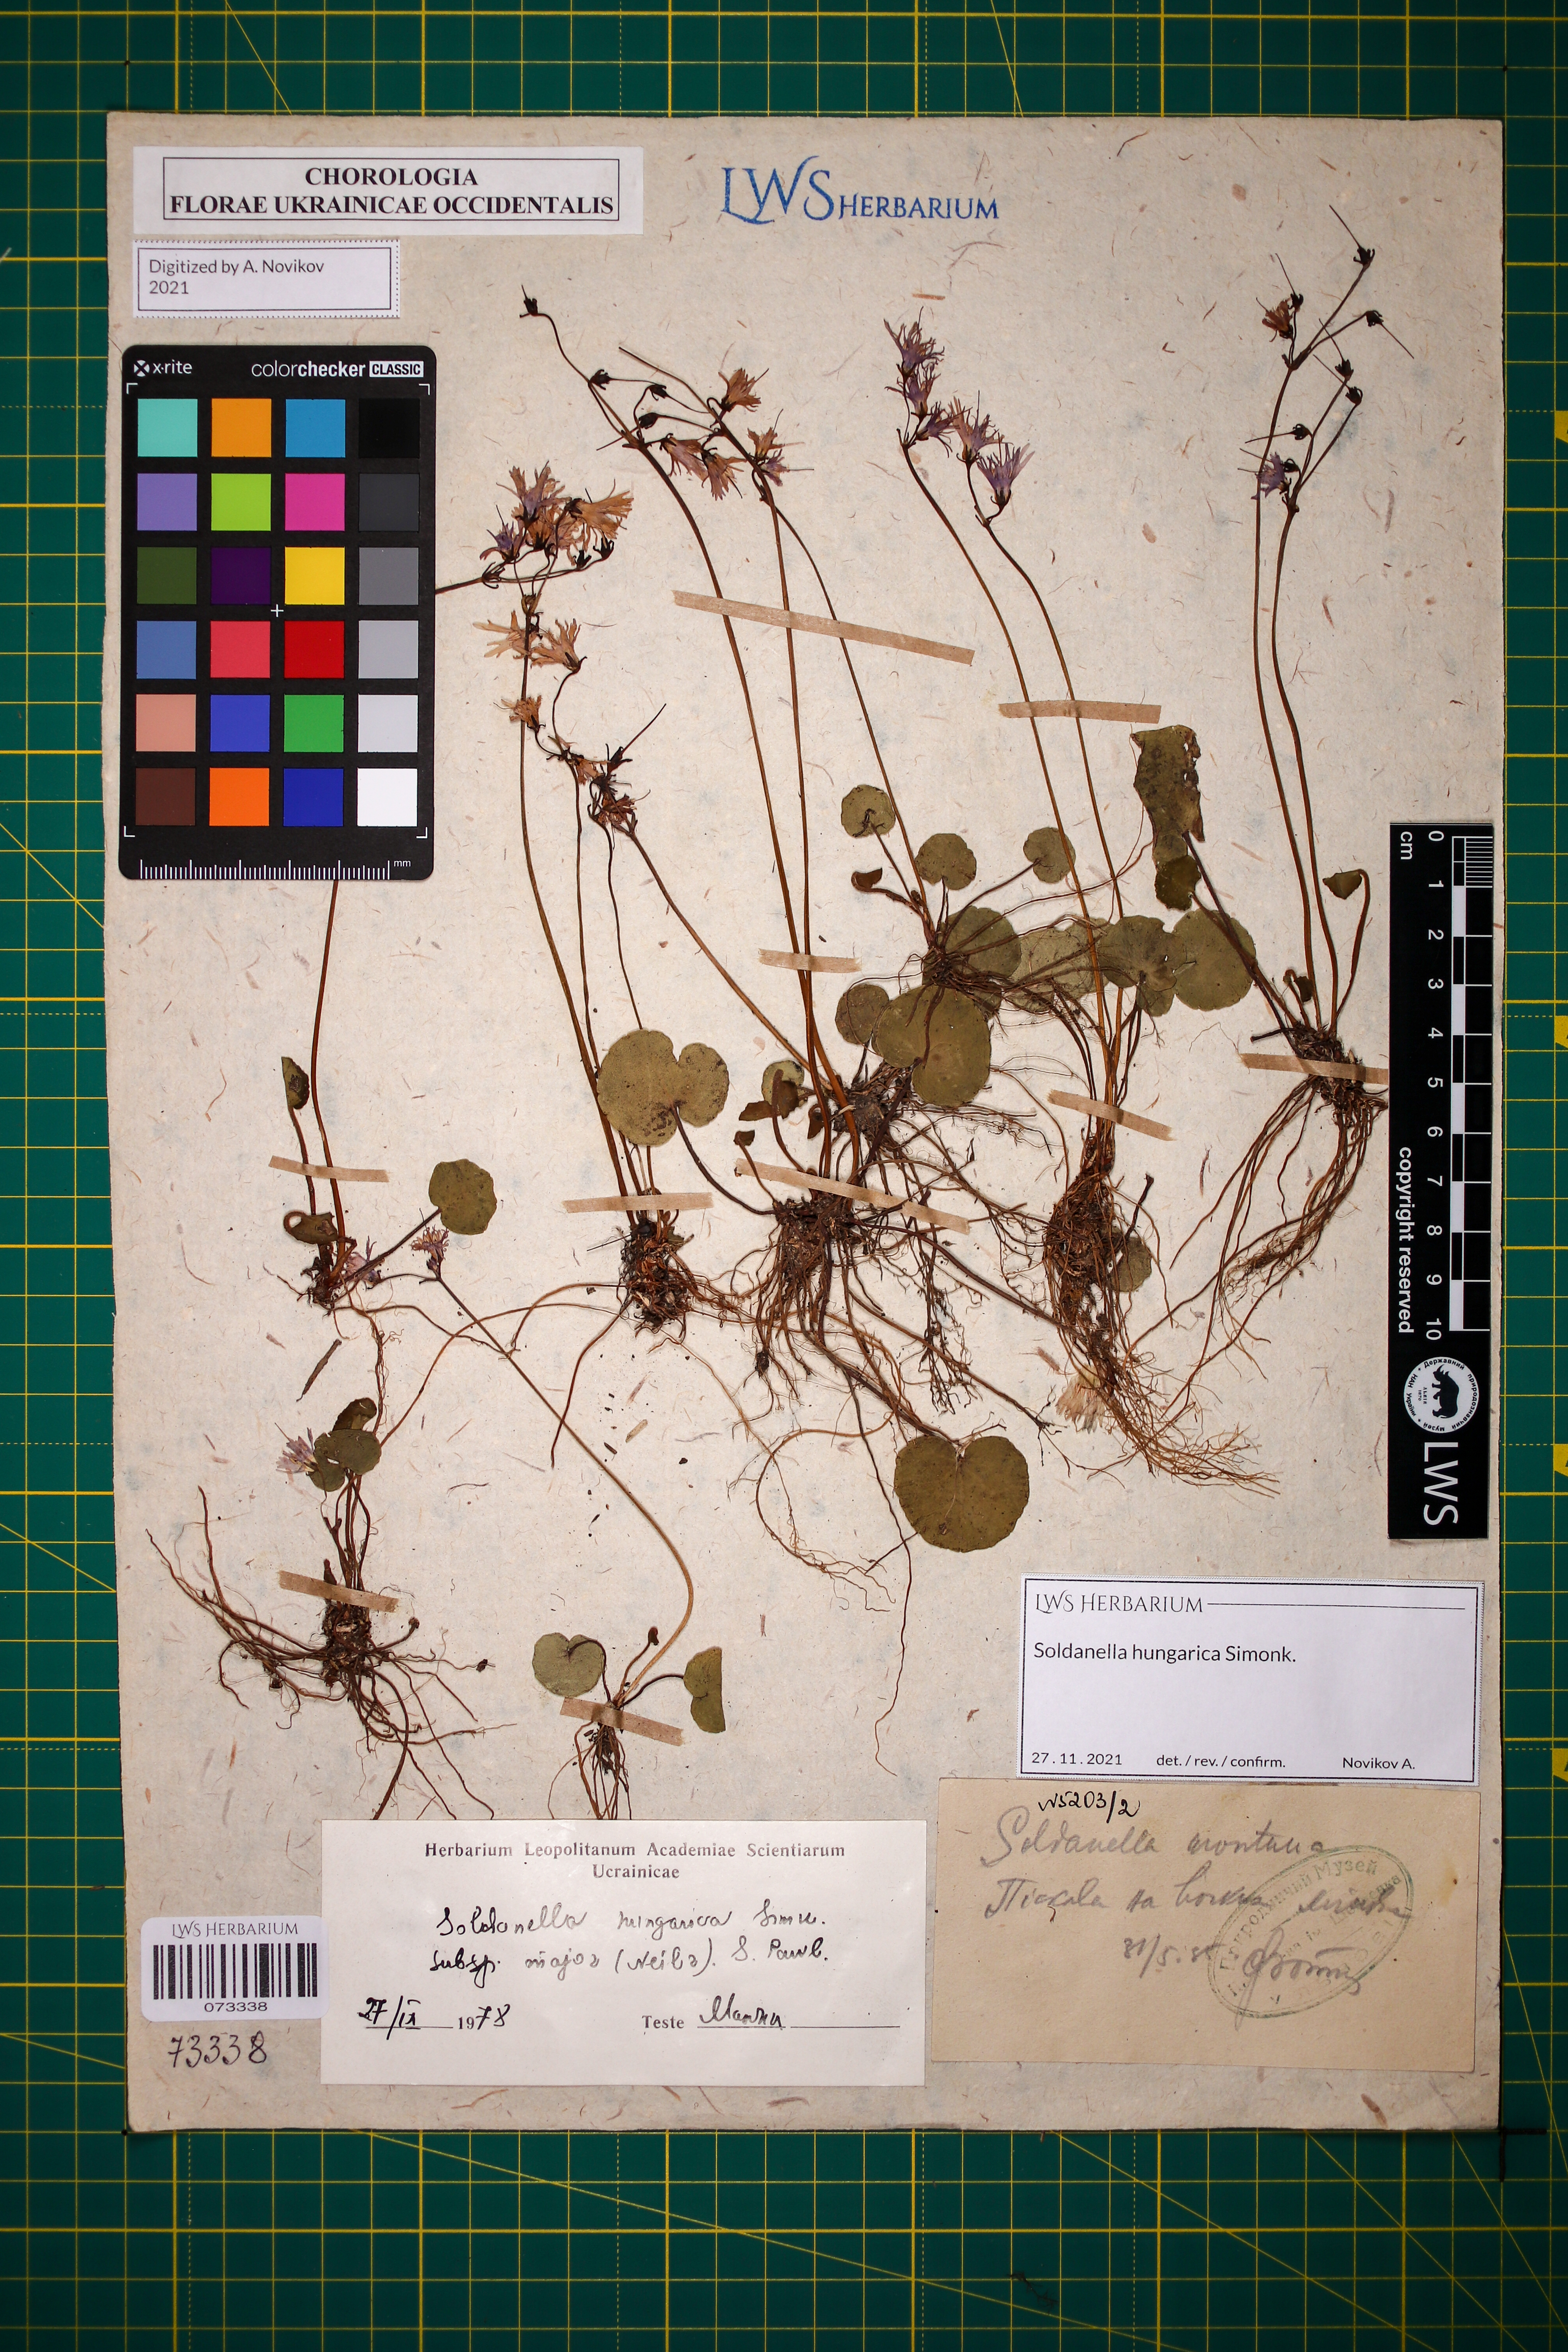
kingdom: Plantae
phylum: Tracheophyta
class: Magnoliopsida
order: Ericales
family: Primulaceae
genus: Soldanella
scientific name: Soldanella hungarica
